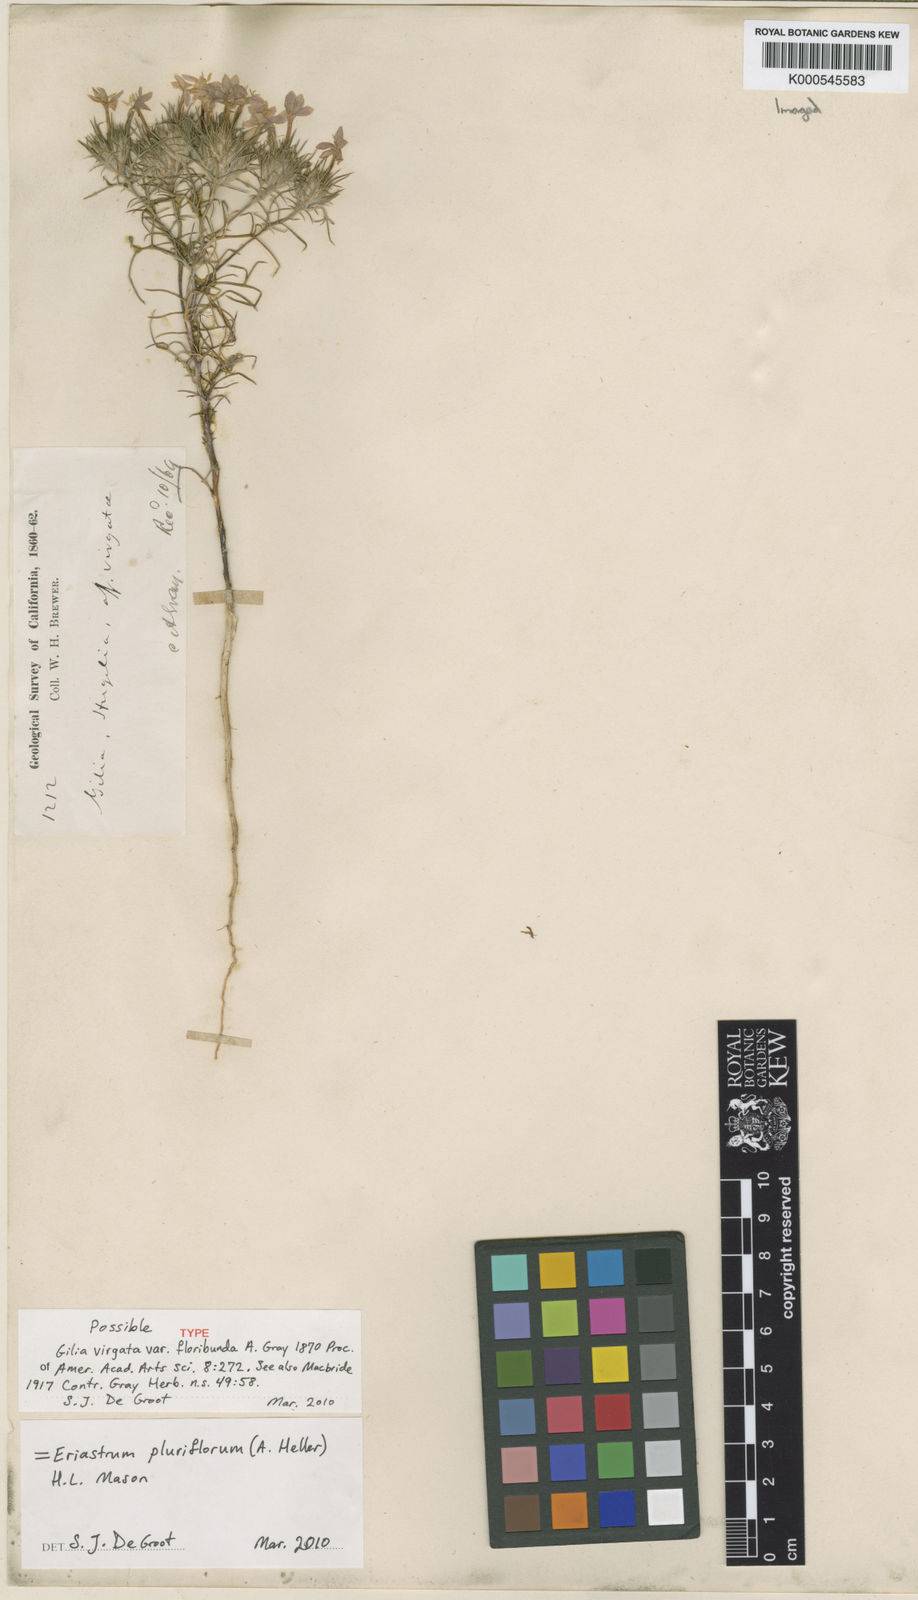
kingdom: Plantae
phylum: Tracheophyta
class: Magnoliopsida
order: Ericales
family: Polemoniaceae
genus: Eriastrum
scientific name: Eriastrum pluriflorum
